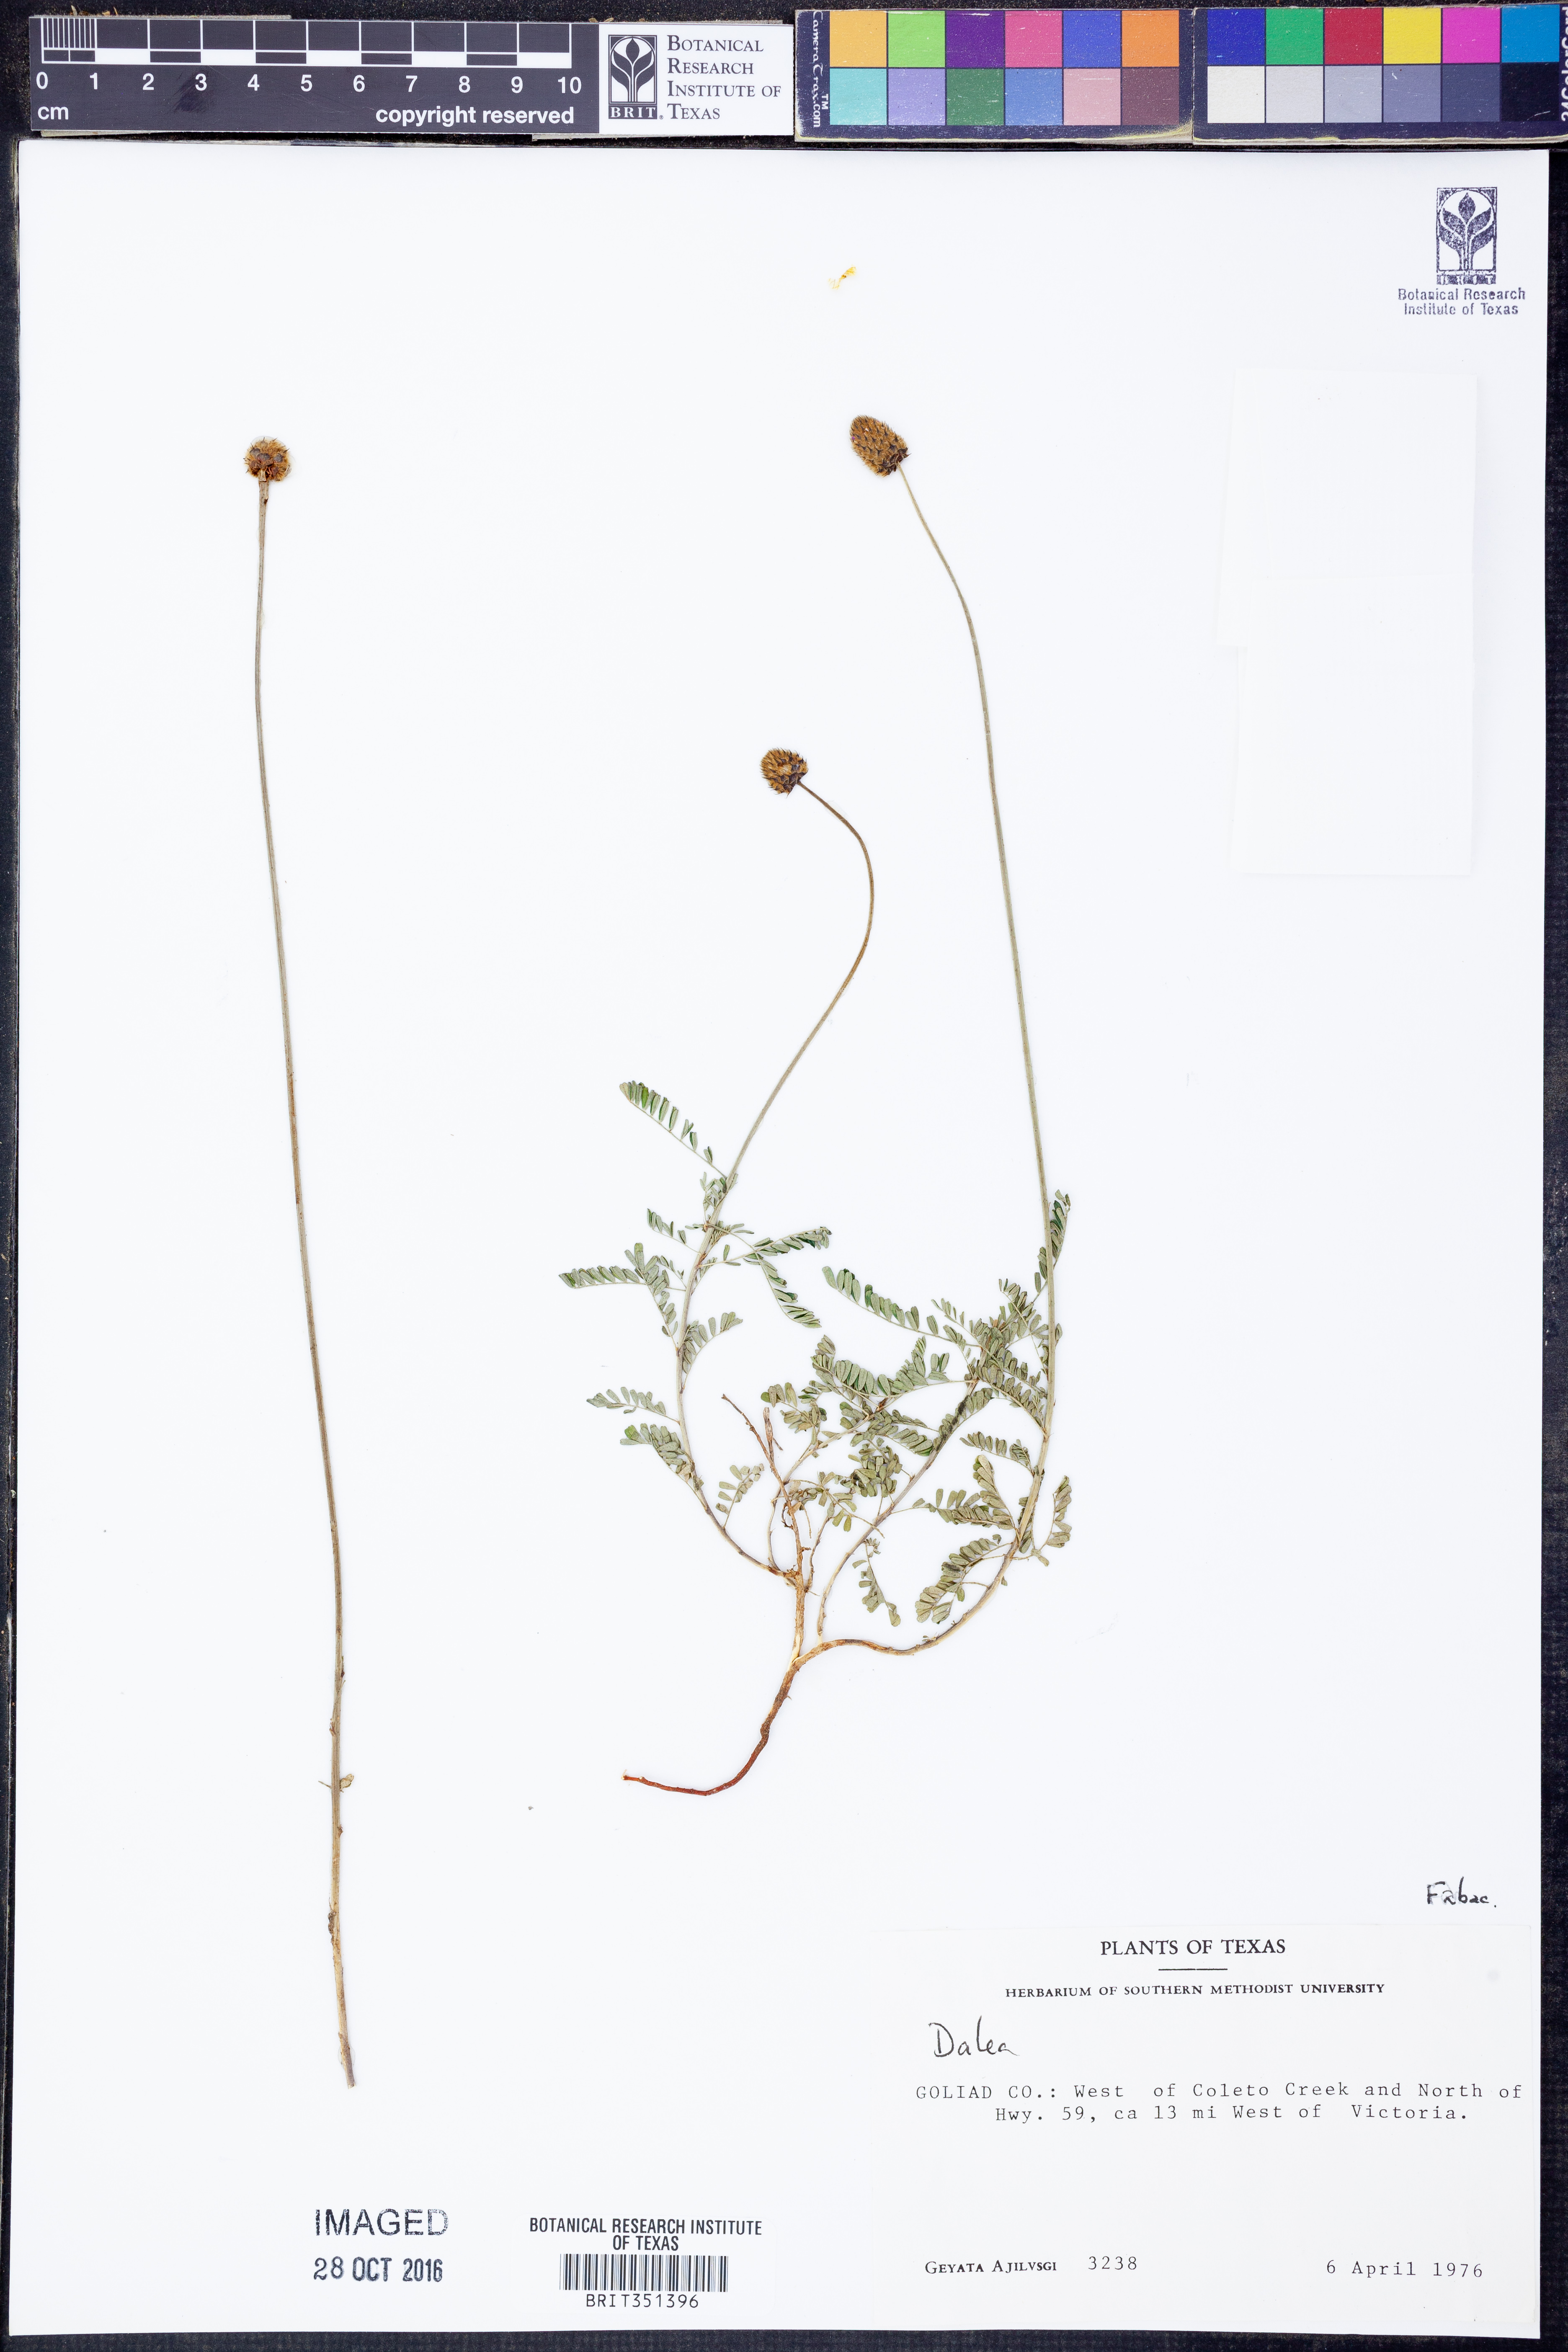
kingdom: Plantae
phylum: Tracheophyta
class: Magnoliopsida
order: Fabales
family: Fabaceae
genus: Dalea
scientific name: Dalea
